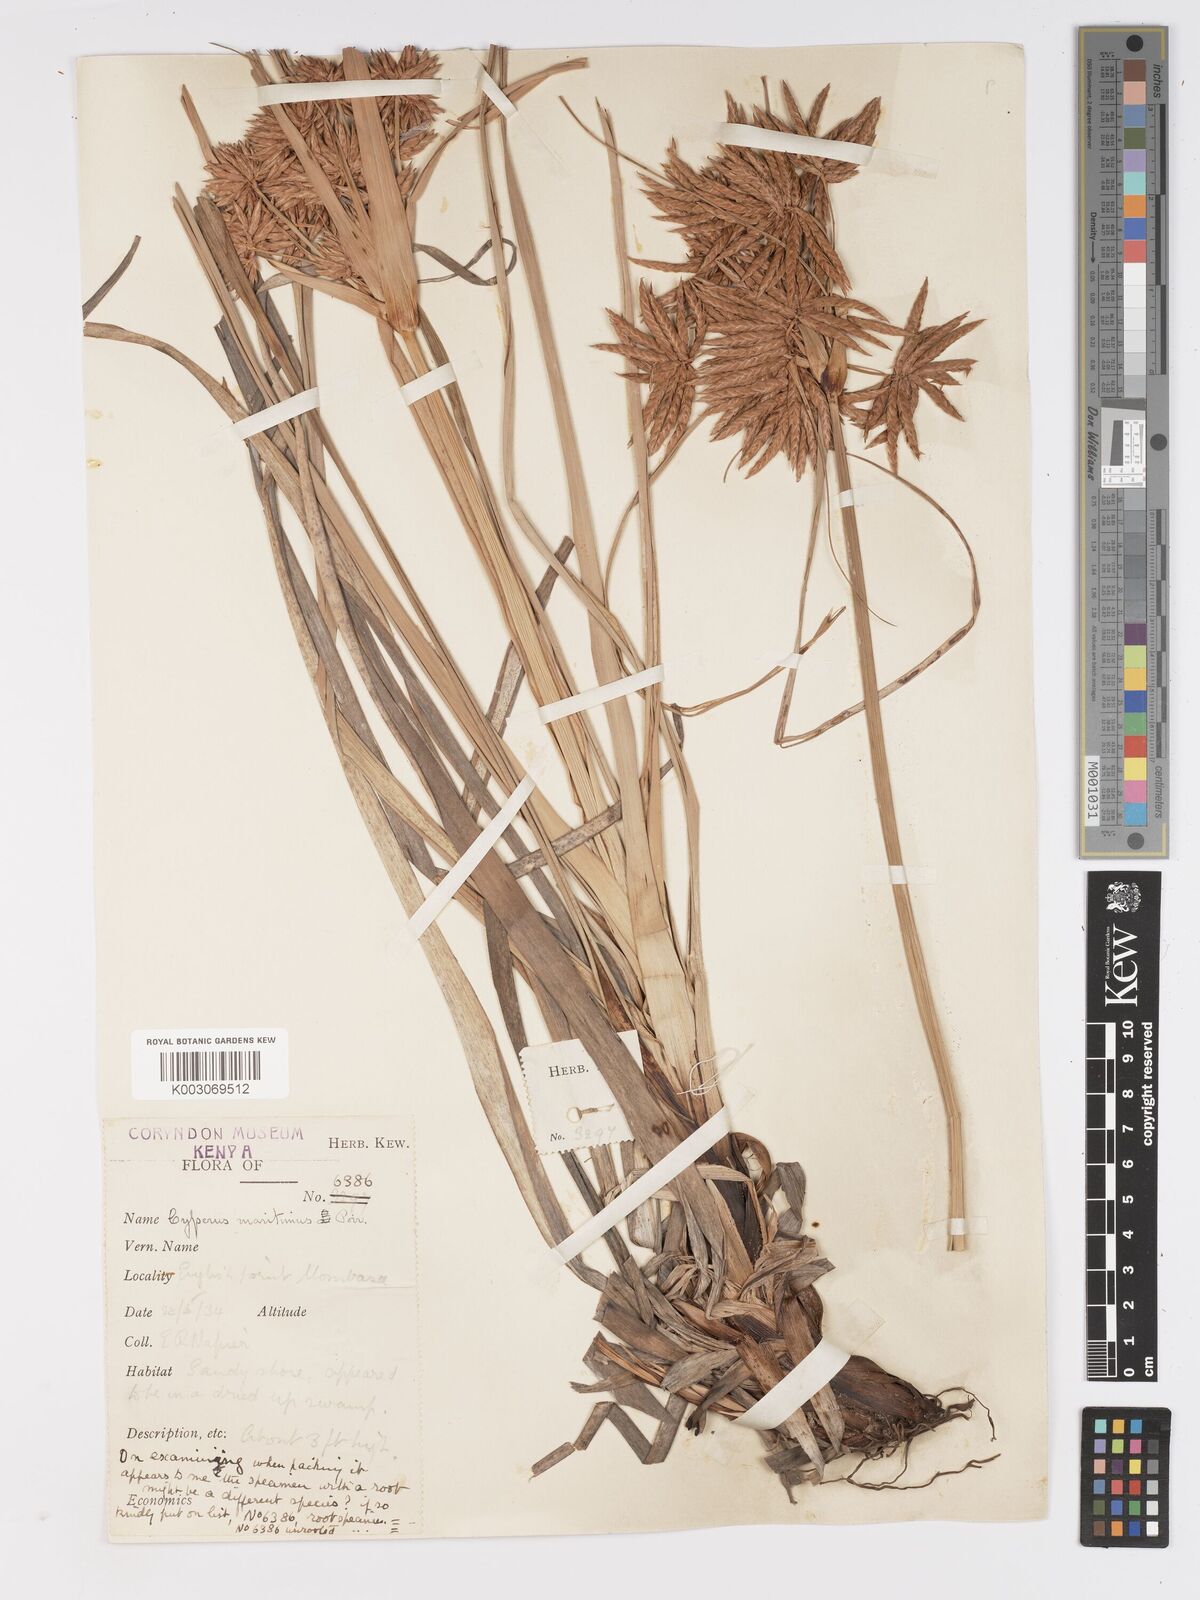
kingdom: Plantae
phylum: Tracheophyta
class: Liliopsida
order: Poales
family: Cyperaceae
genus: Cyperus
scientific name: Cyperus crassipes
